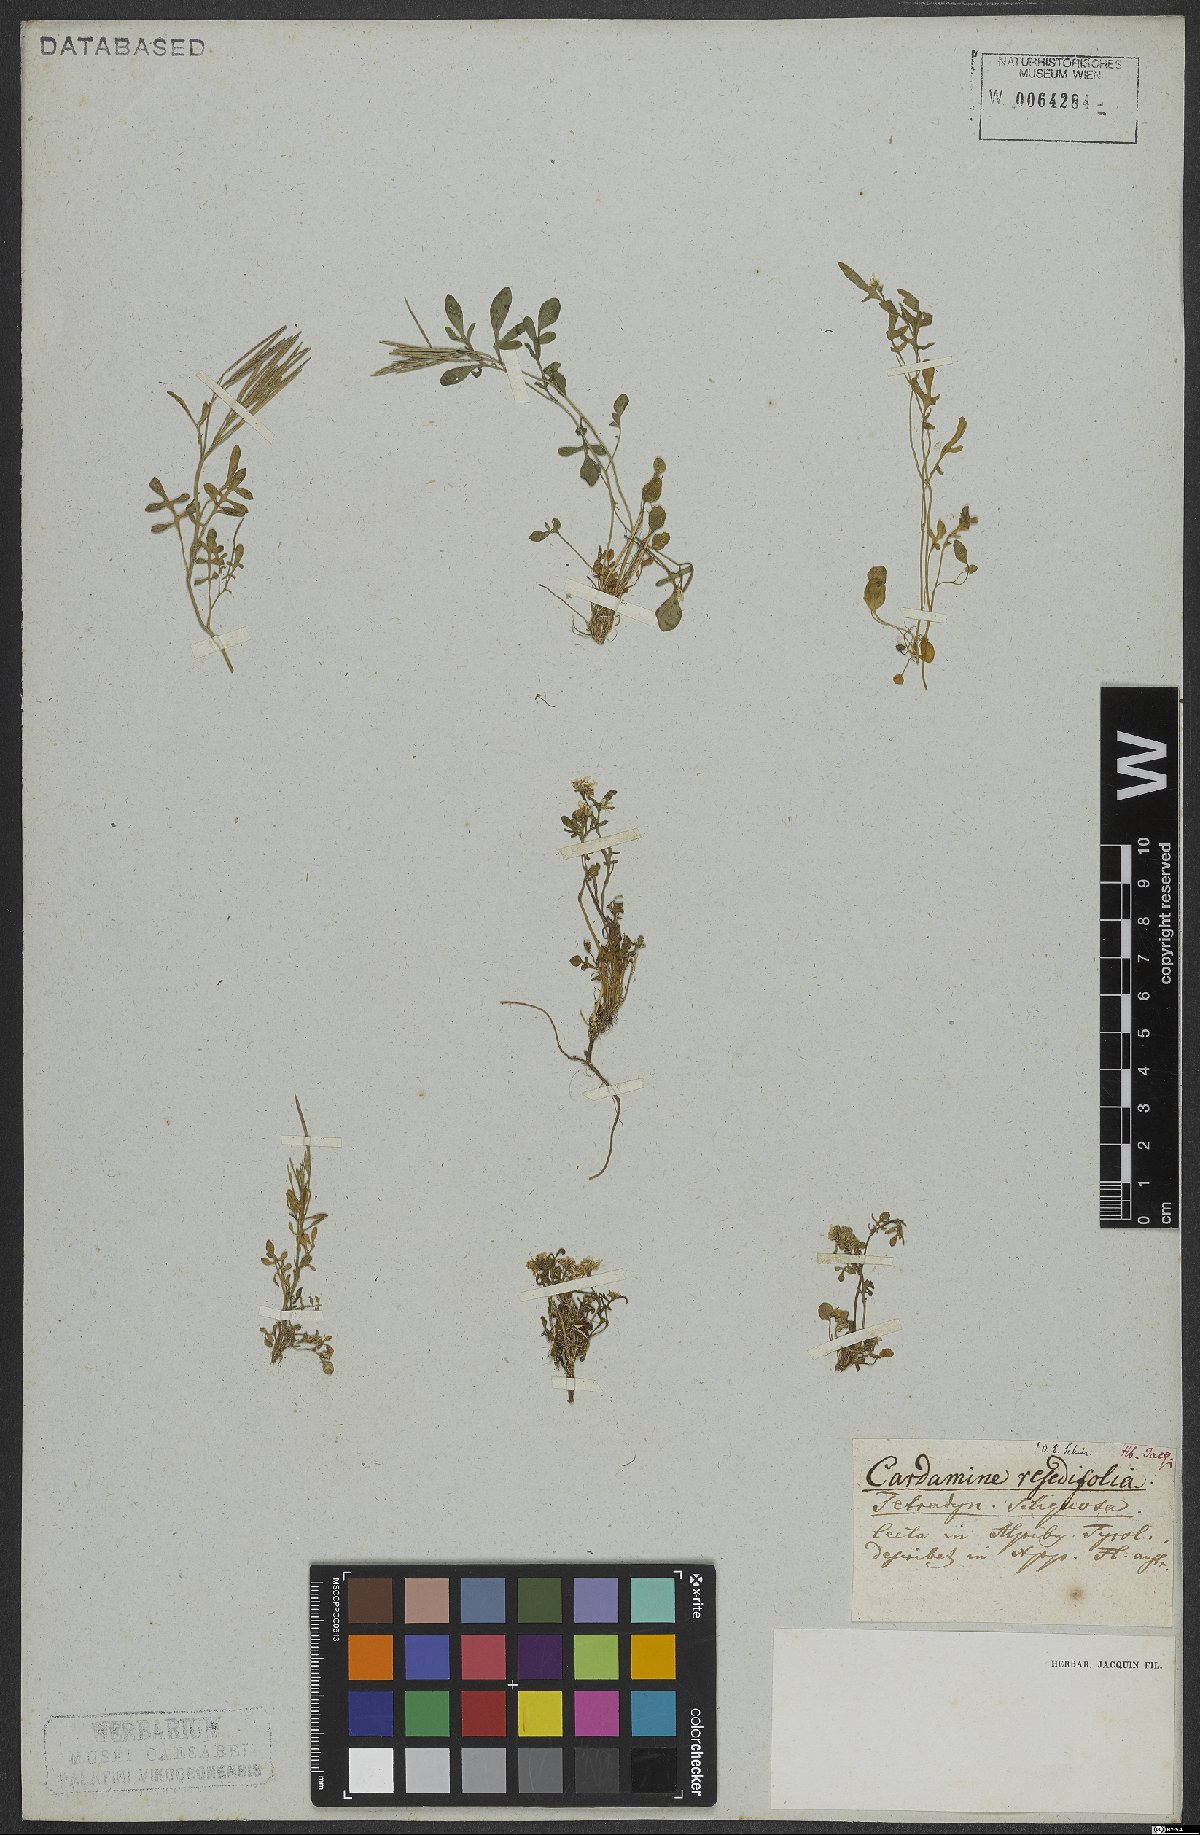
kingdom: Plantae
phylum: Tracheophyta
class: Magnoliopsida
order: Brassicales
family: Brassicaceae
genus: Cardamine
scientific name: Cardamine resedifolia
